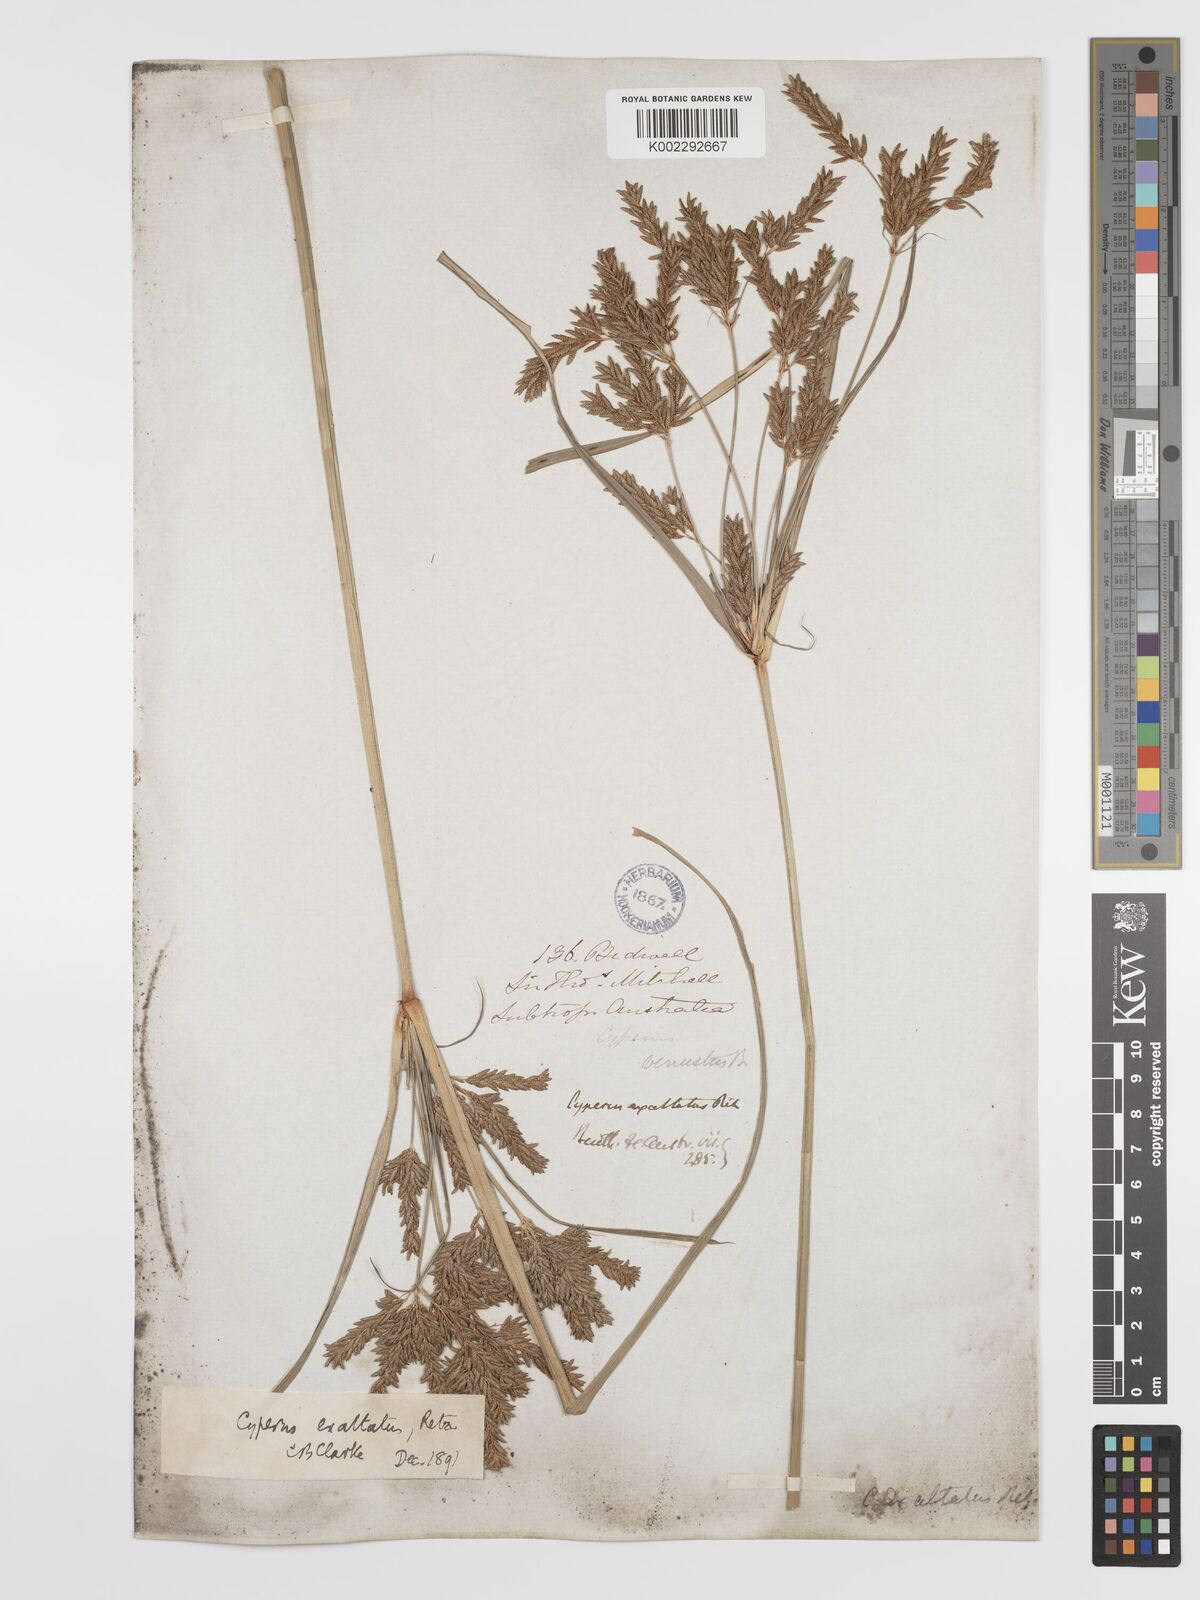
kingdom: Plantae
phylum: Tracheophyta
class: Liliopsida
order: Poales
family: Cyperaceae
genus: Cyperus
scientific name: Cyperus exaltatus
